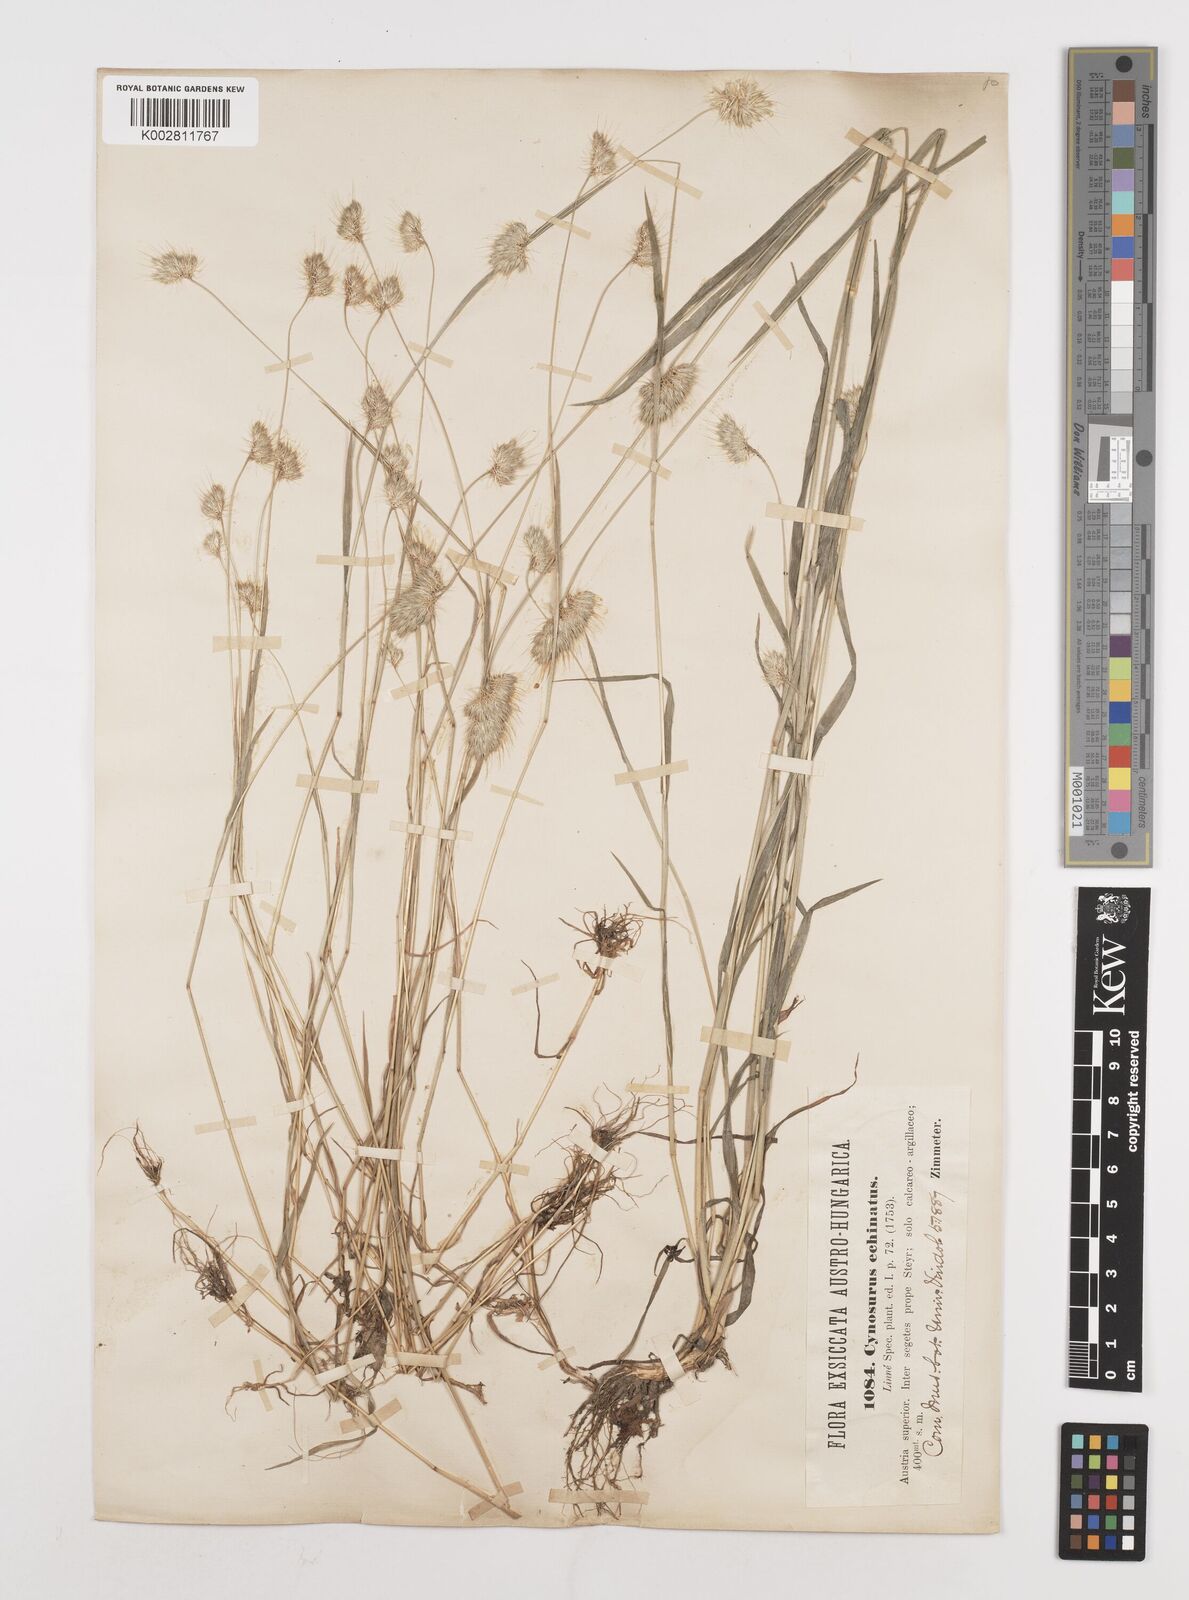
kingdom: Plantae
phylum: Tracheophyta
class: Liliopsida
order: Poales
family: Poaceae
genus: Cynosurus
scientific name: Cynosurus echinatus
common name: Rough dog's-tail
